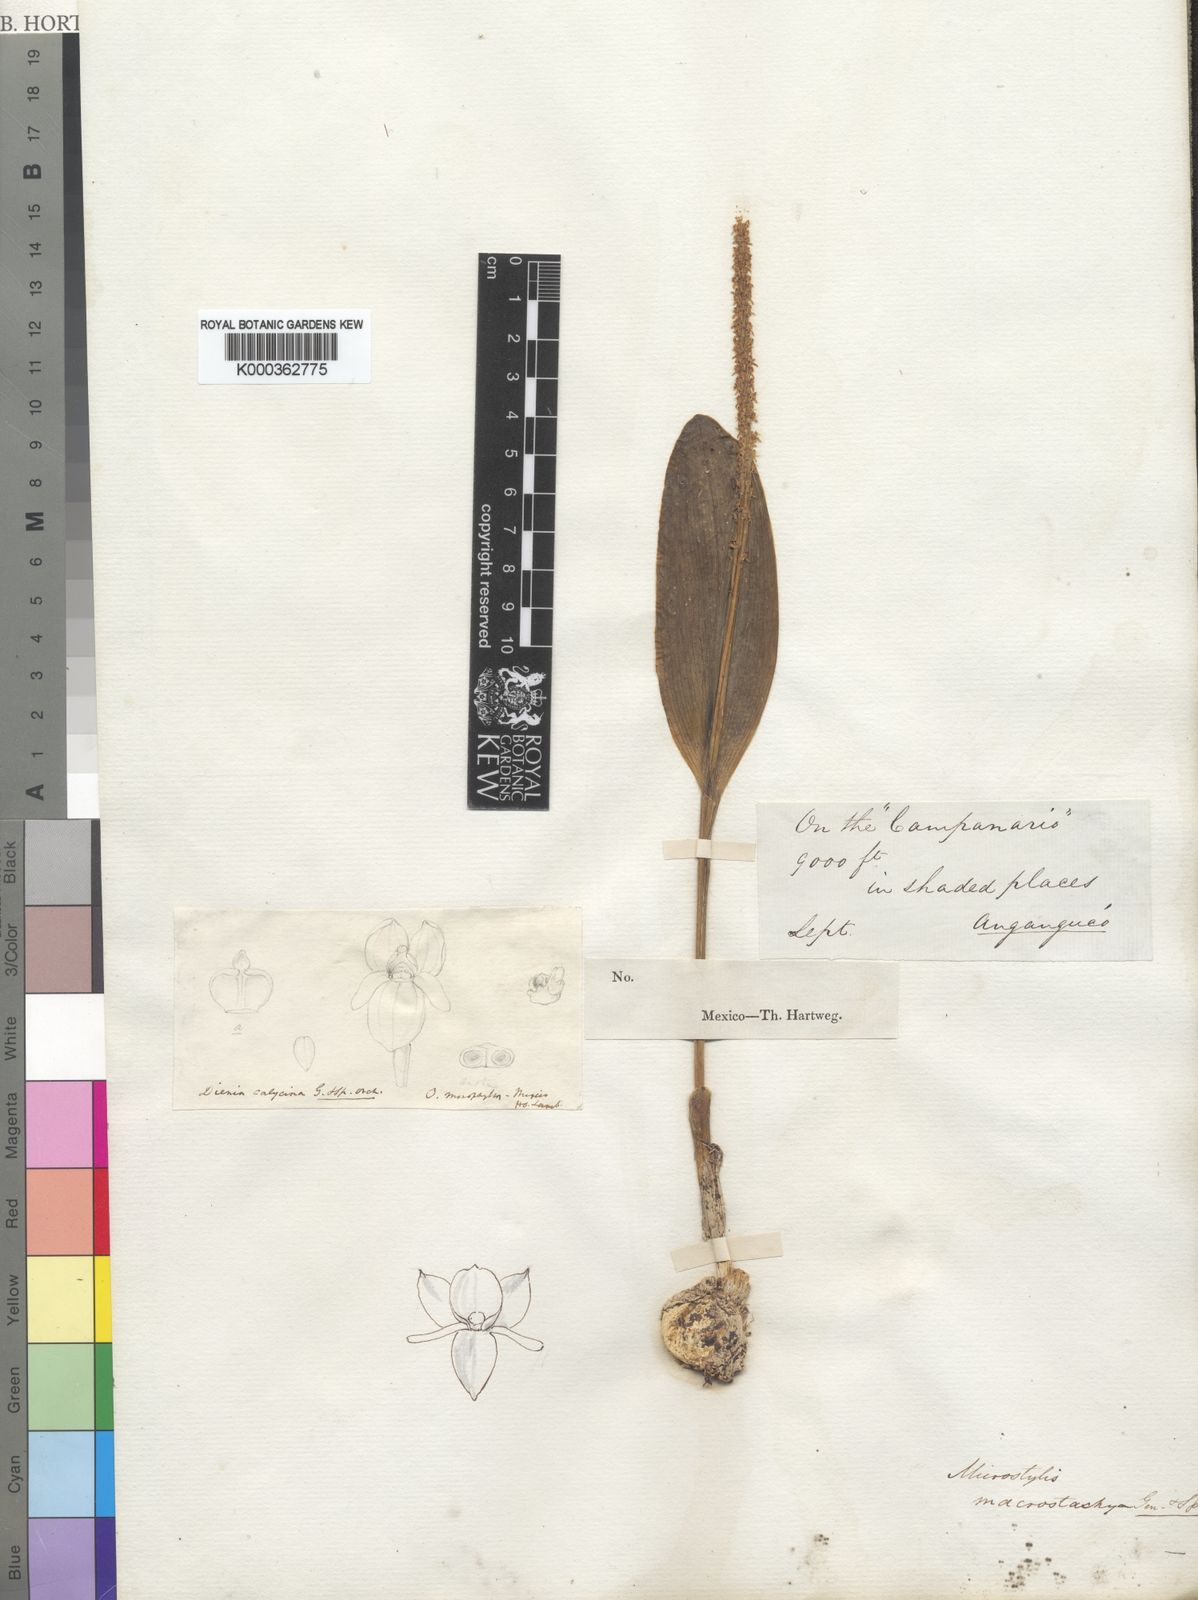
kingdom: Plantae
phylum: Tracheophyta
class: Liliopsida
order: Asparagales
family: Orchidaceae
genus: Malaxis
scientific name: Malaxis macrostachya
